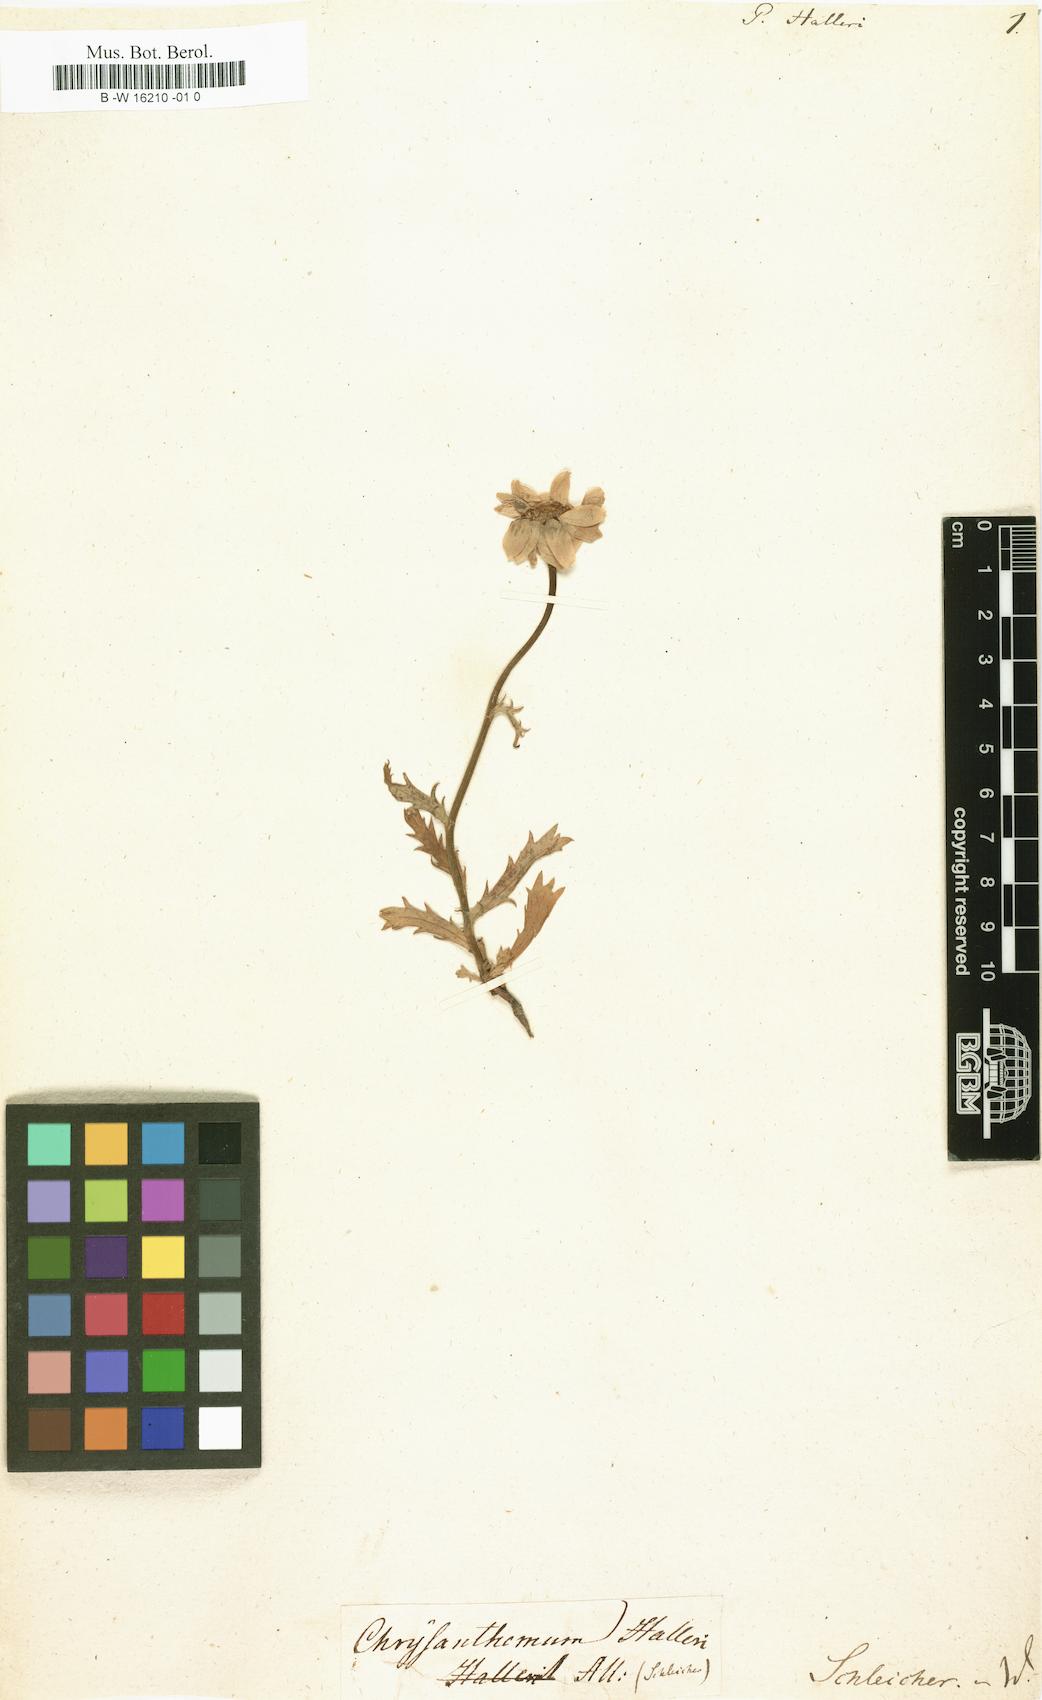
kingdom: Plantae
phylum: Tracheophyta
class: Magnoliopsida
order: Asterales
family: Asteraceae
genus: Leucanthemum
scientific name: Leucanthemum halleri
